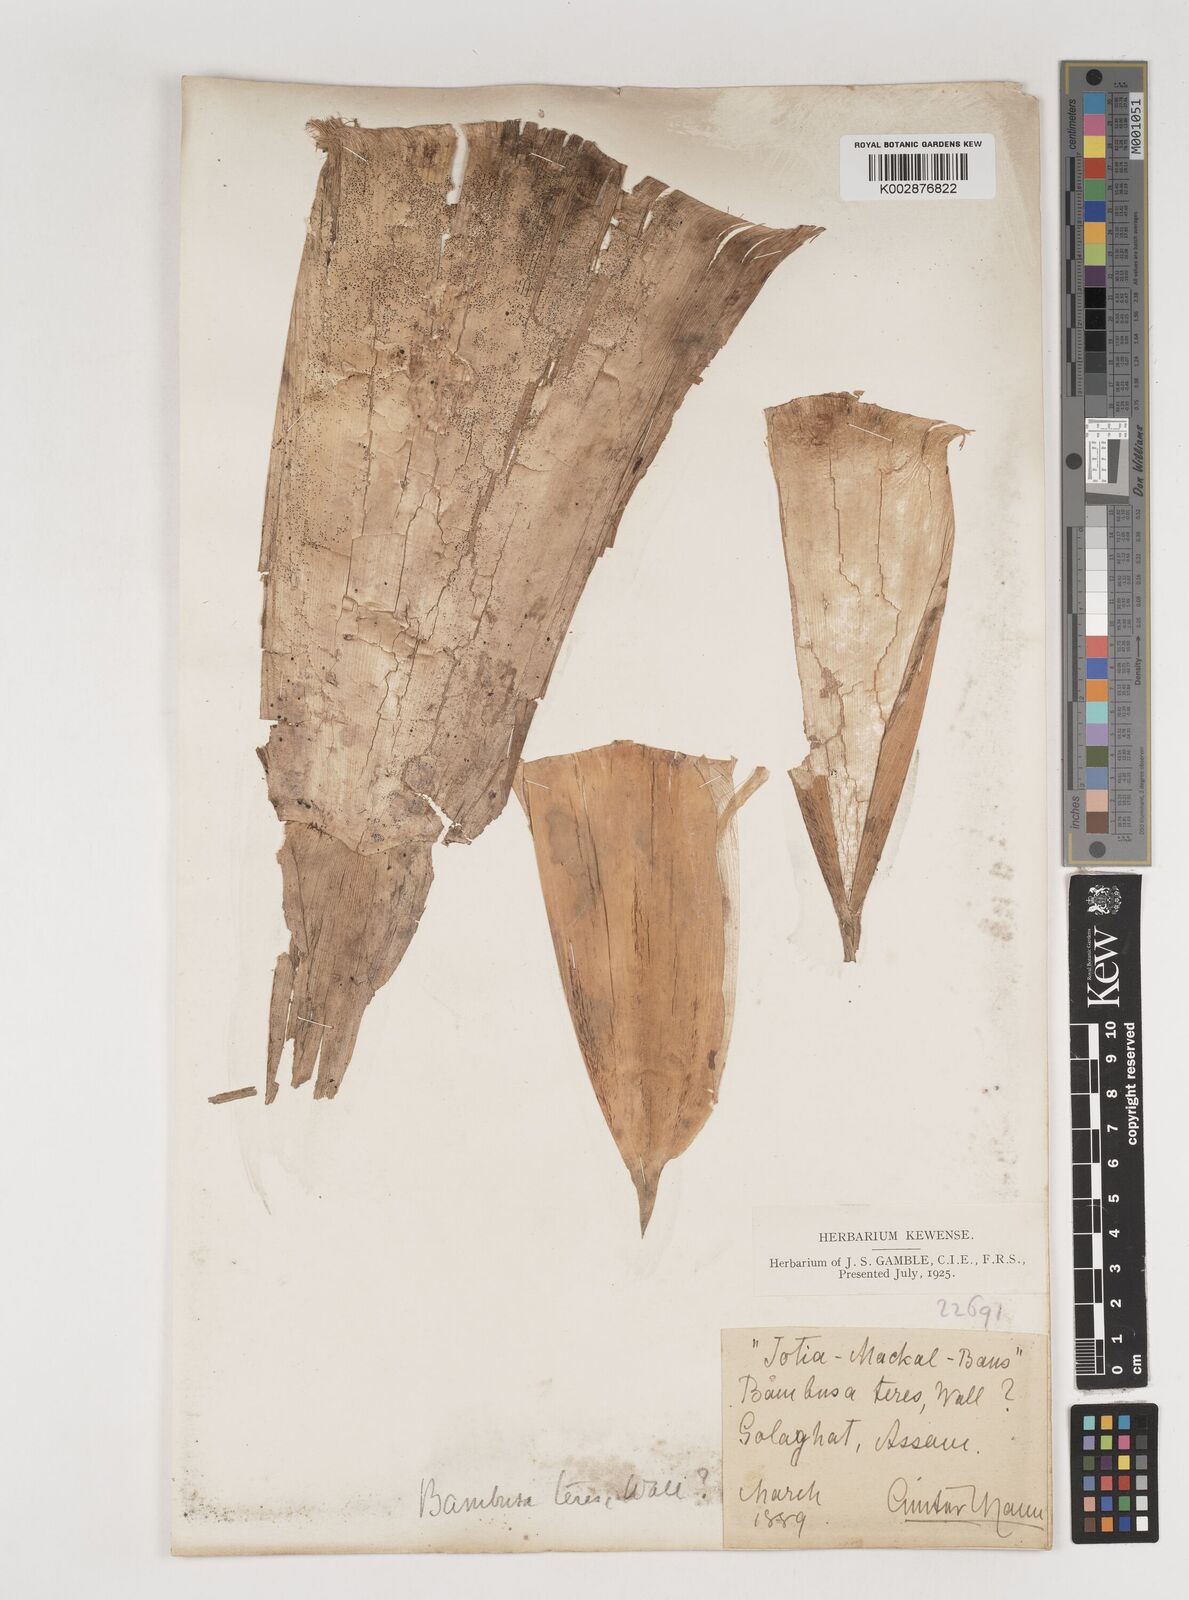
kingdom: Plantae
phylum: Tracheophyta
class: Liliopsida
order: Poales
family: Poaceae
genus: Bambusa
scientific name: Bambusa teres
